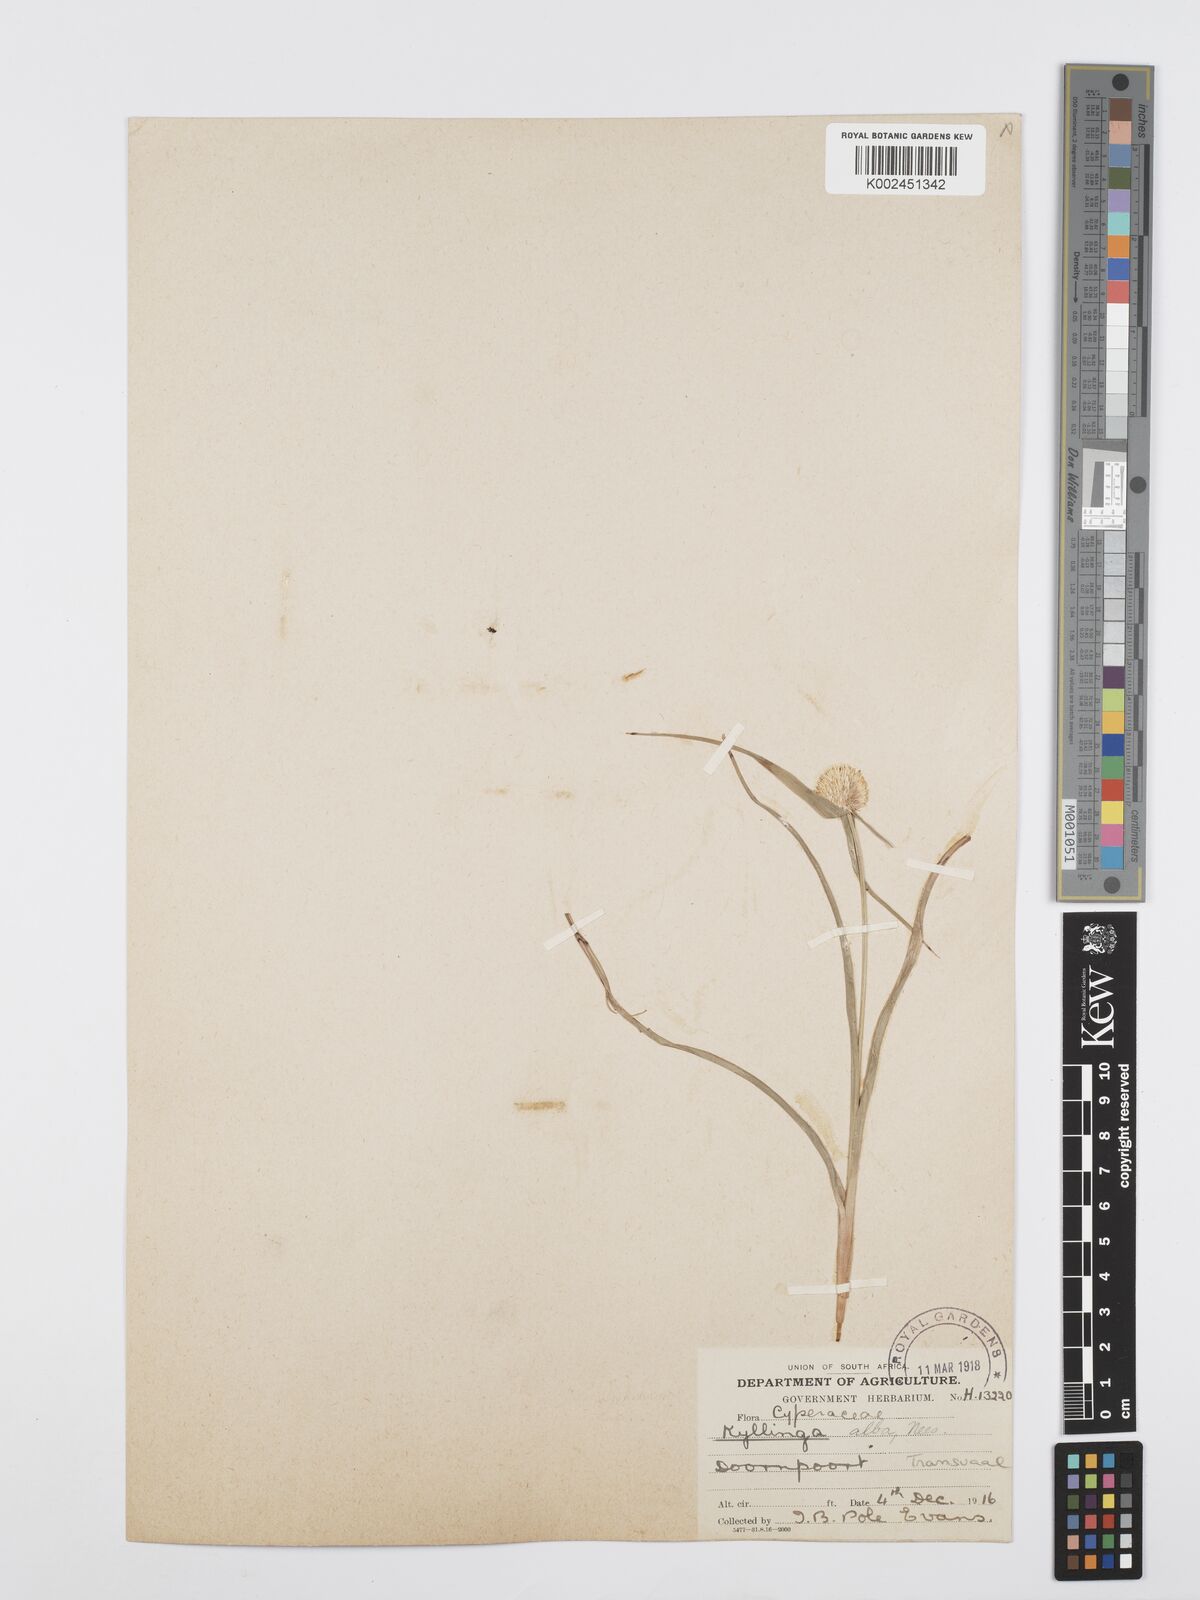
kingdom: Plantae
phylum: Tracheophyta
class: Liliopsida
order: Poales
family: Cyperaceae
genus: Cyperus
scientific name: Cyperus
